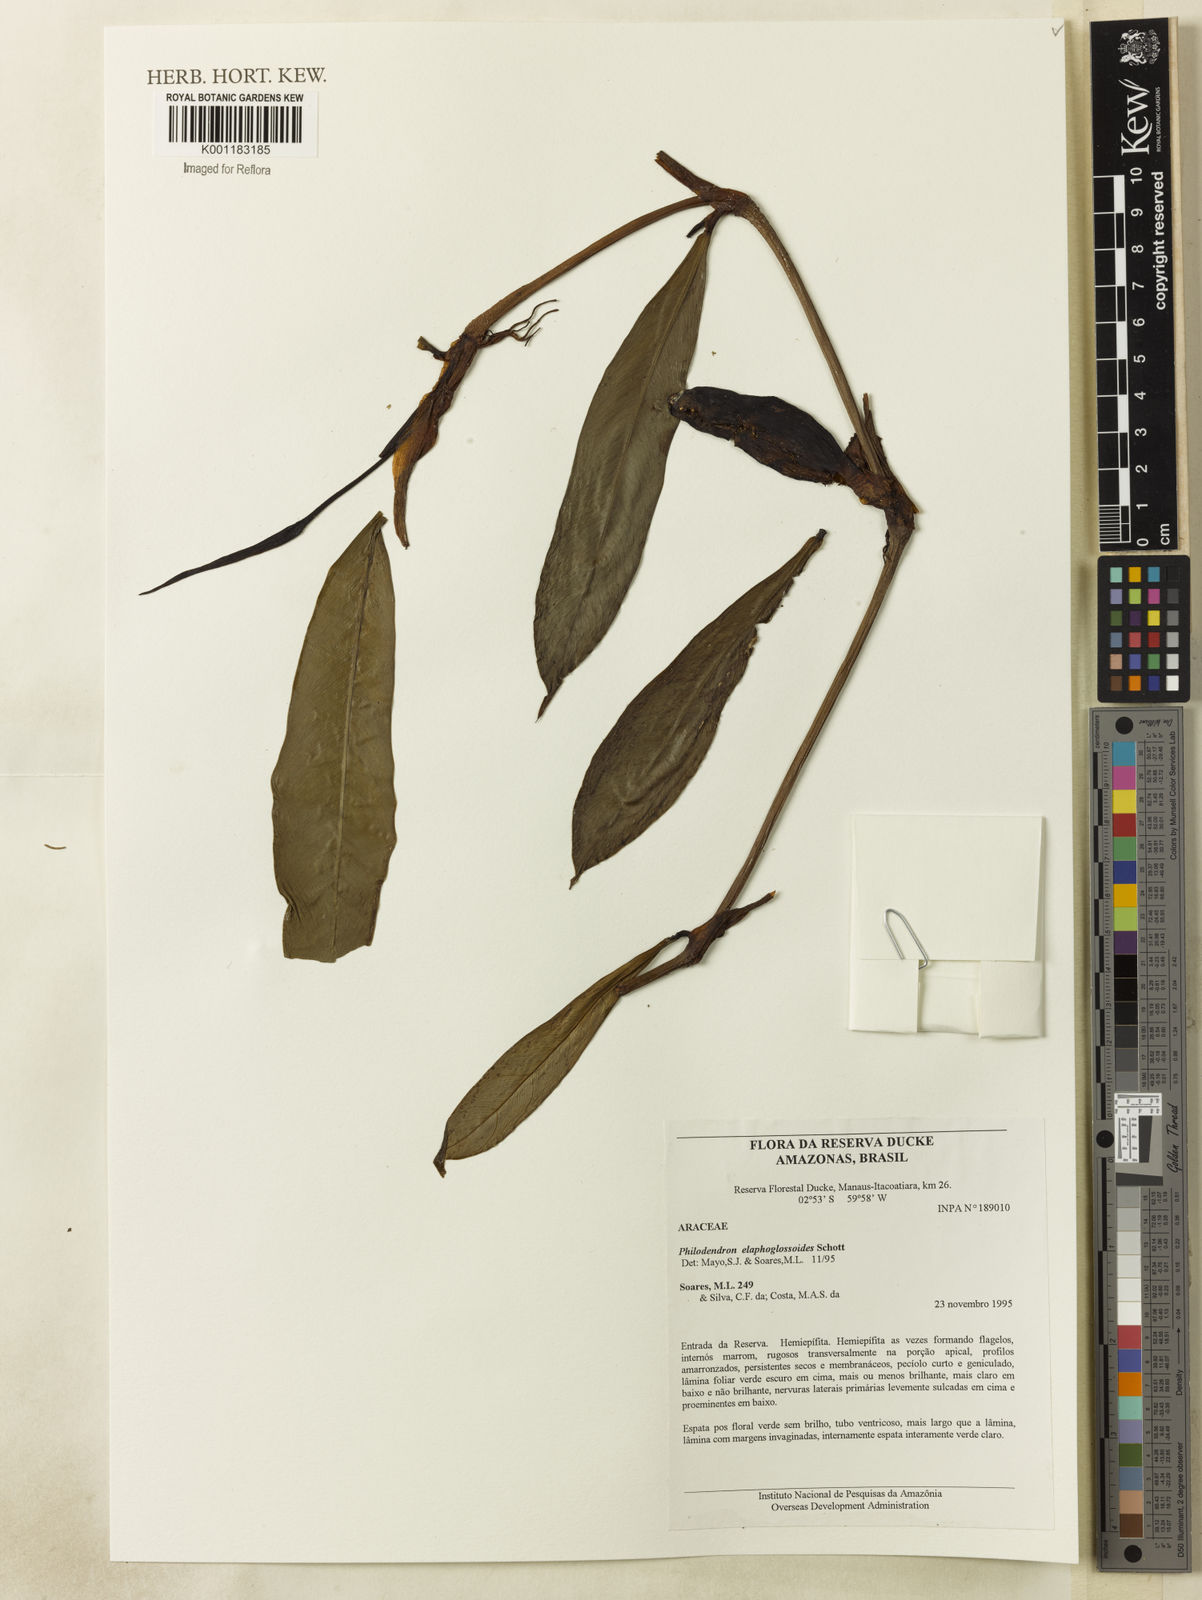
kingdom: Plantae
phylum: Tracheophyta
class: Liliopsida
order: Alismatales
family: Araceae
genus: Philodendron
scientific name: Philodendron elaphoglossoides
